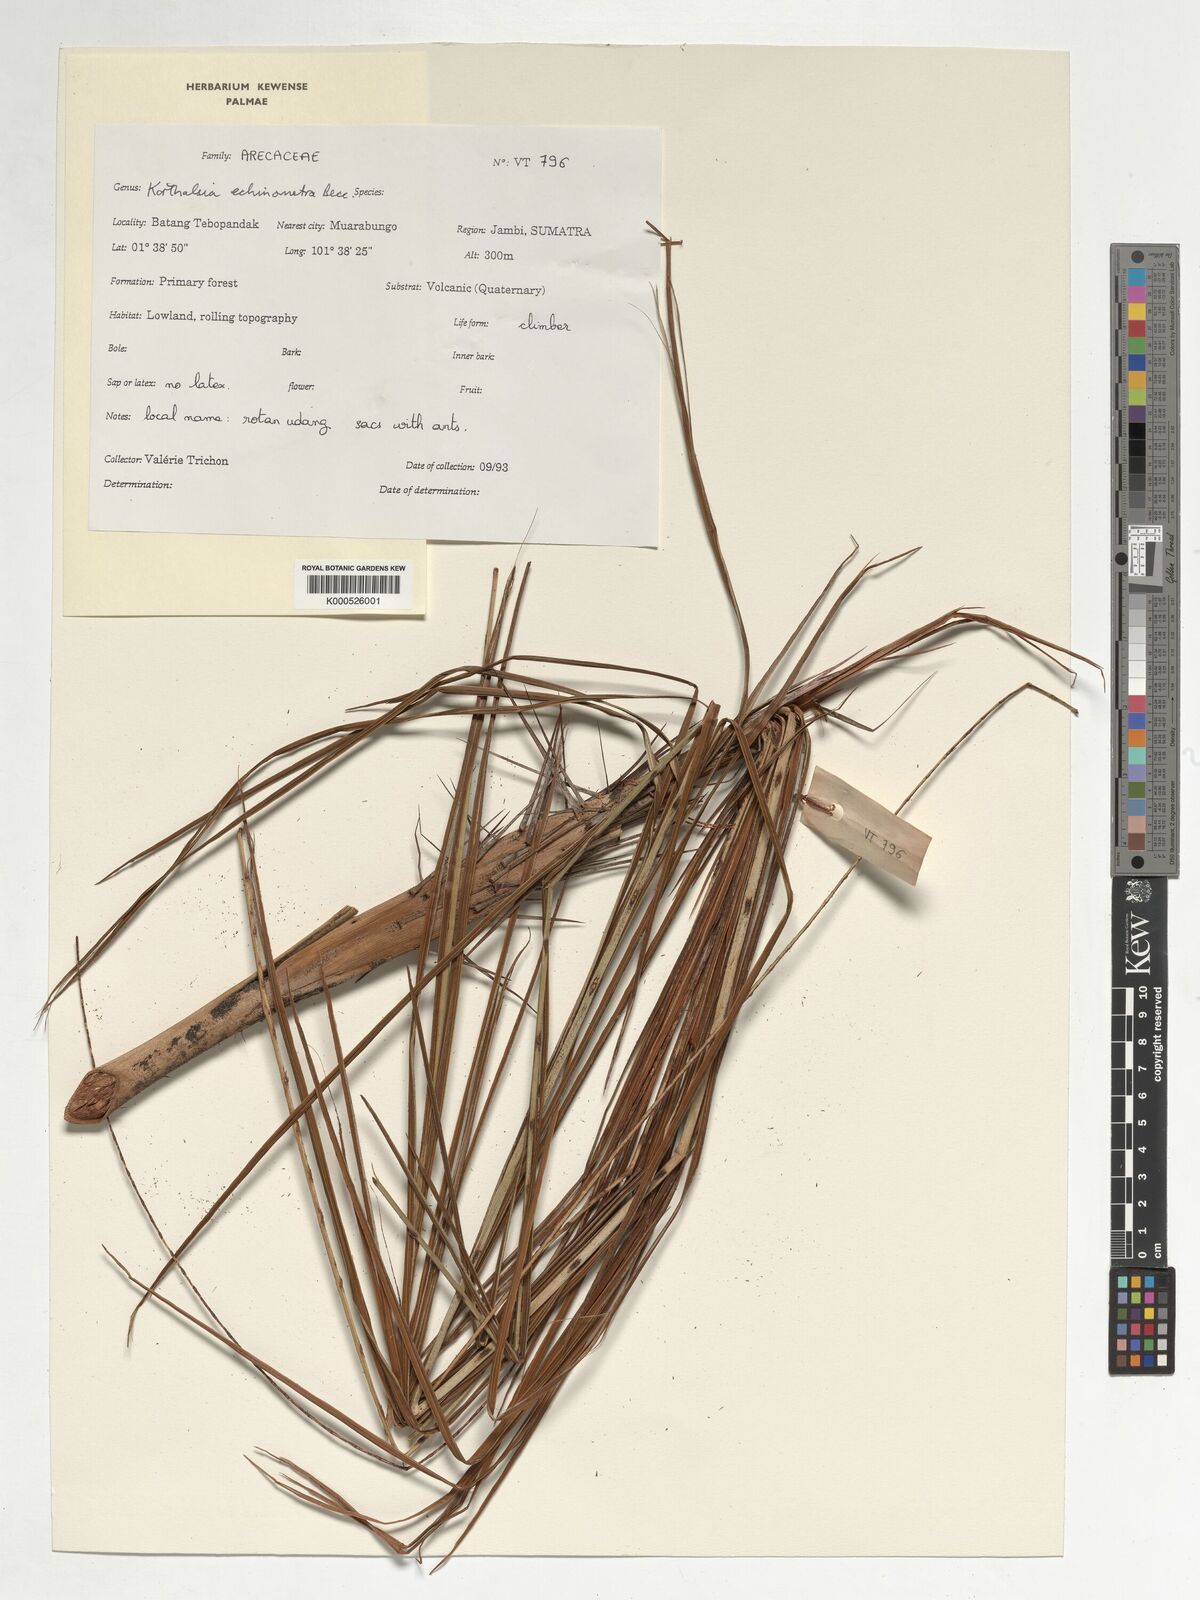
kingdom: Plantae
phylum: Tracheophyta
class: Liliopsida
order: Arecales
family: Arecaceae
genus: Korthalsia
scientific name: Korthalsia echinometra
